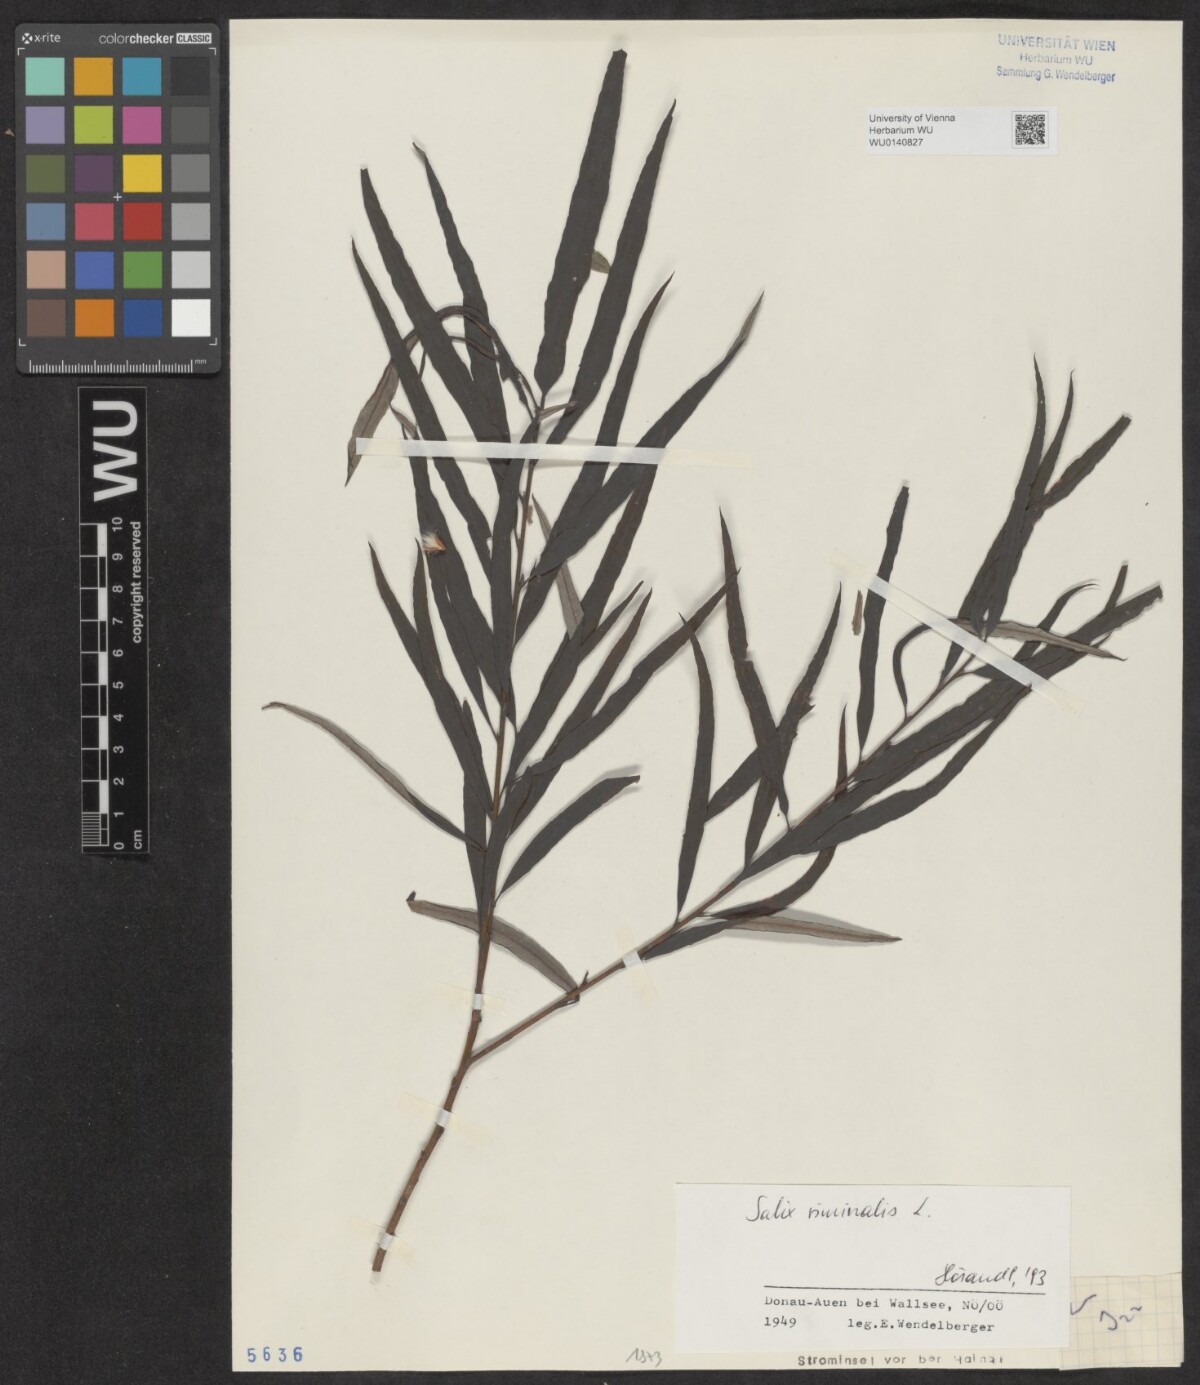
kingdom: Plantae
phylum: Tracheophyta
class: Magnoliopsida
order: Malpighiales
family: Salicaceae
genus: Salix
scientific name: Salix viminalis
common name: Osier
